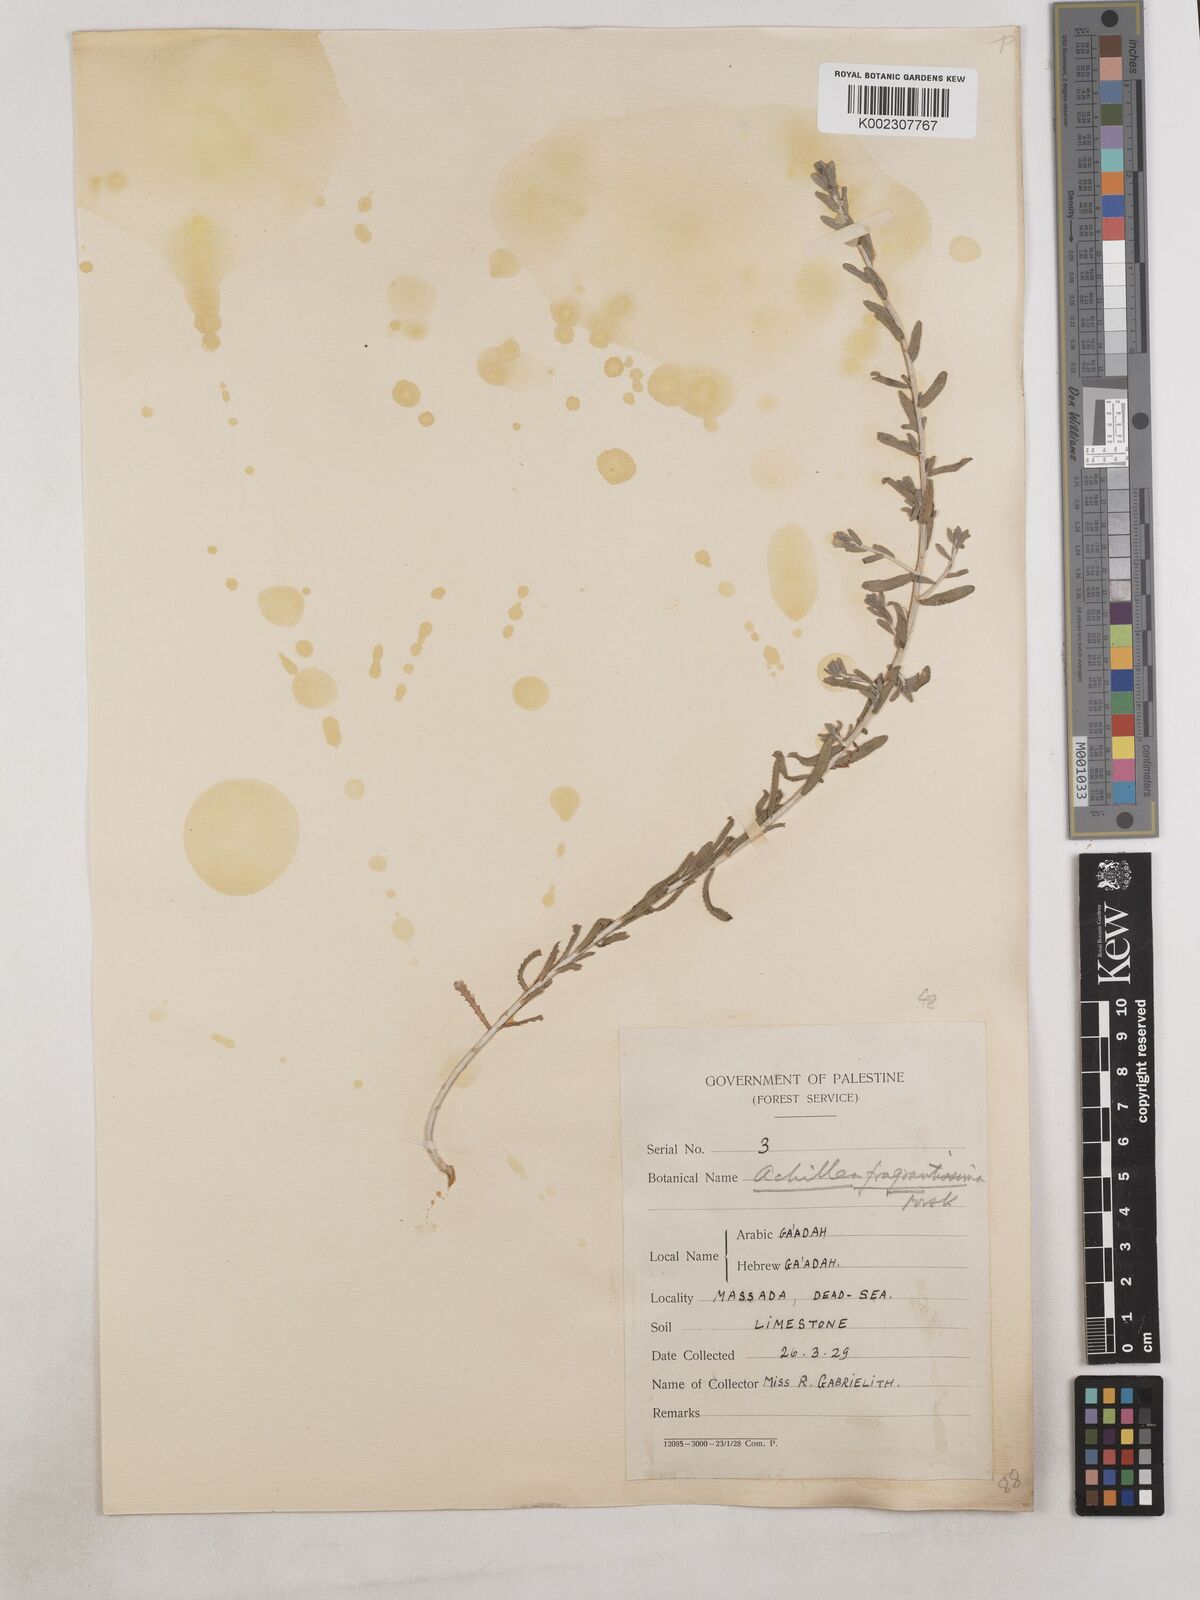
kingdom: Plantae
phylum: Tracheophyta
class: Magnoliopsida
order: Asterales
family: Asteraceae
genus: Achillea
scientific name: Achillea fragrantissima
